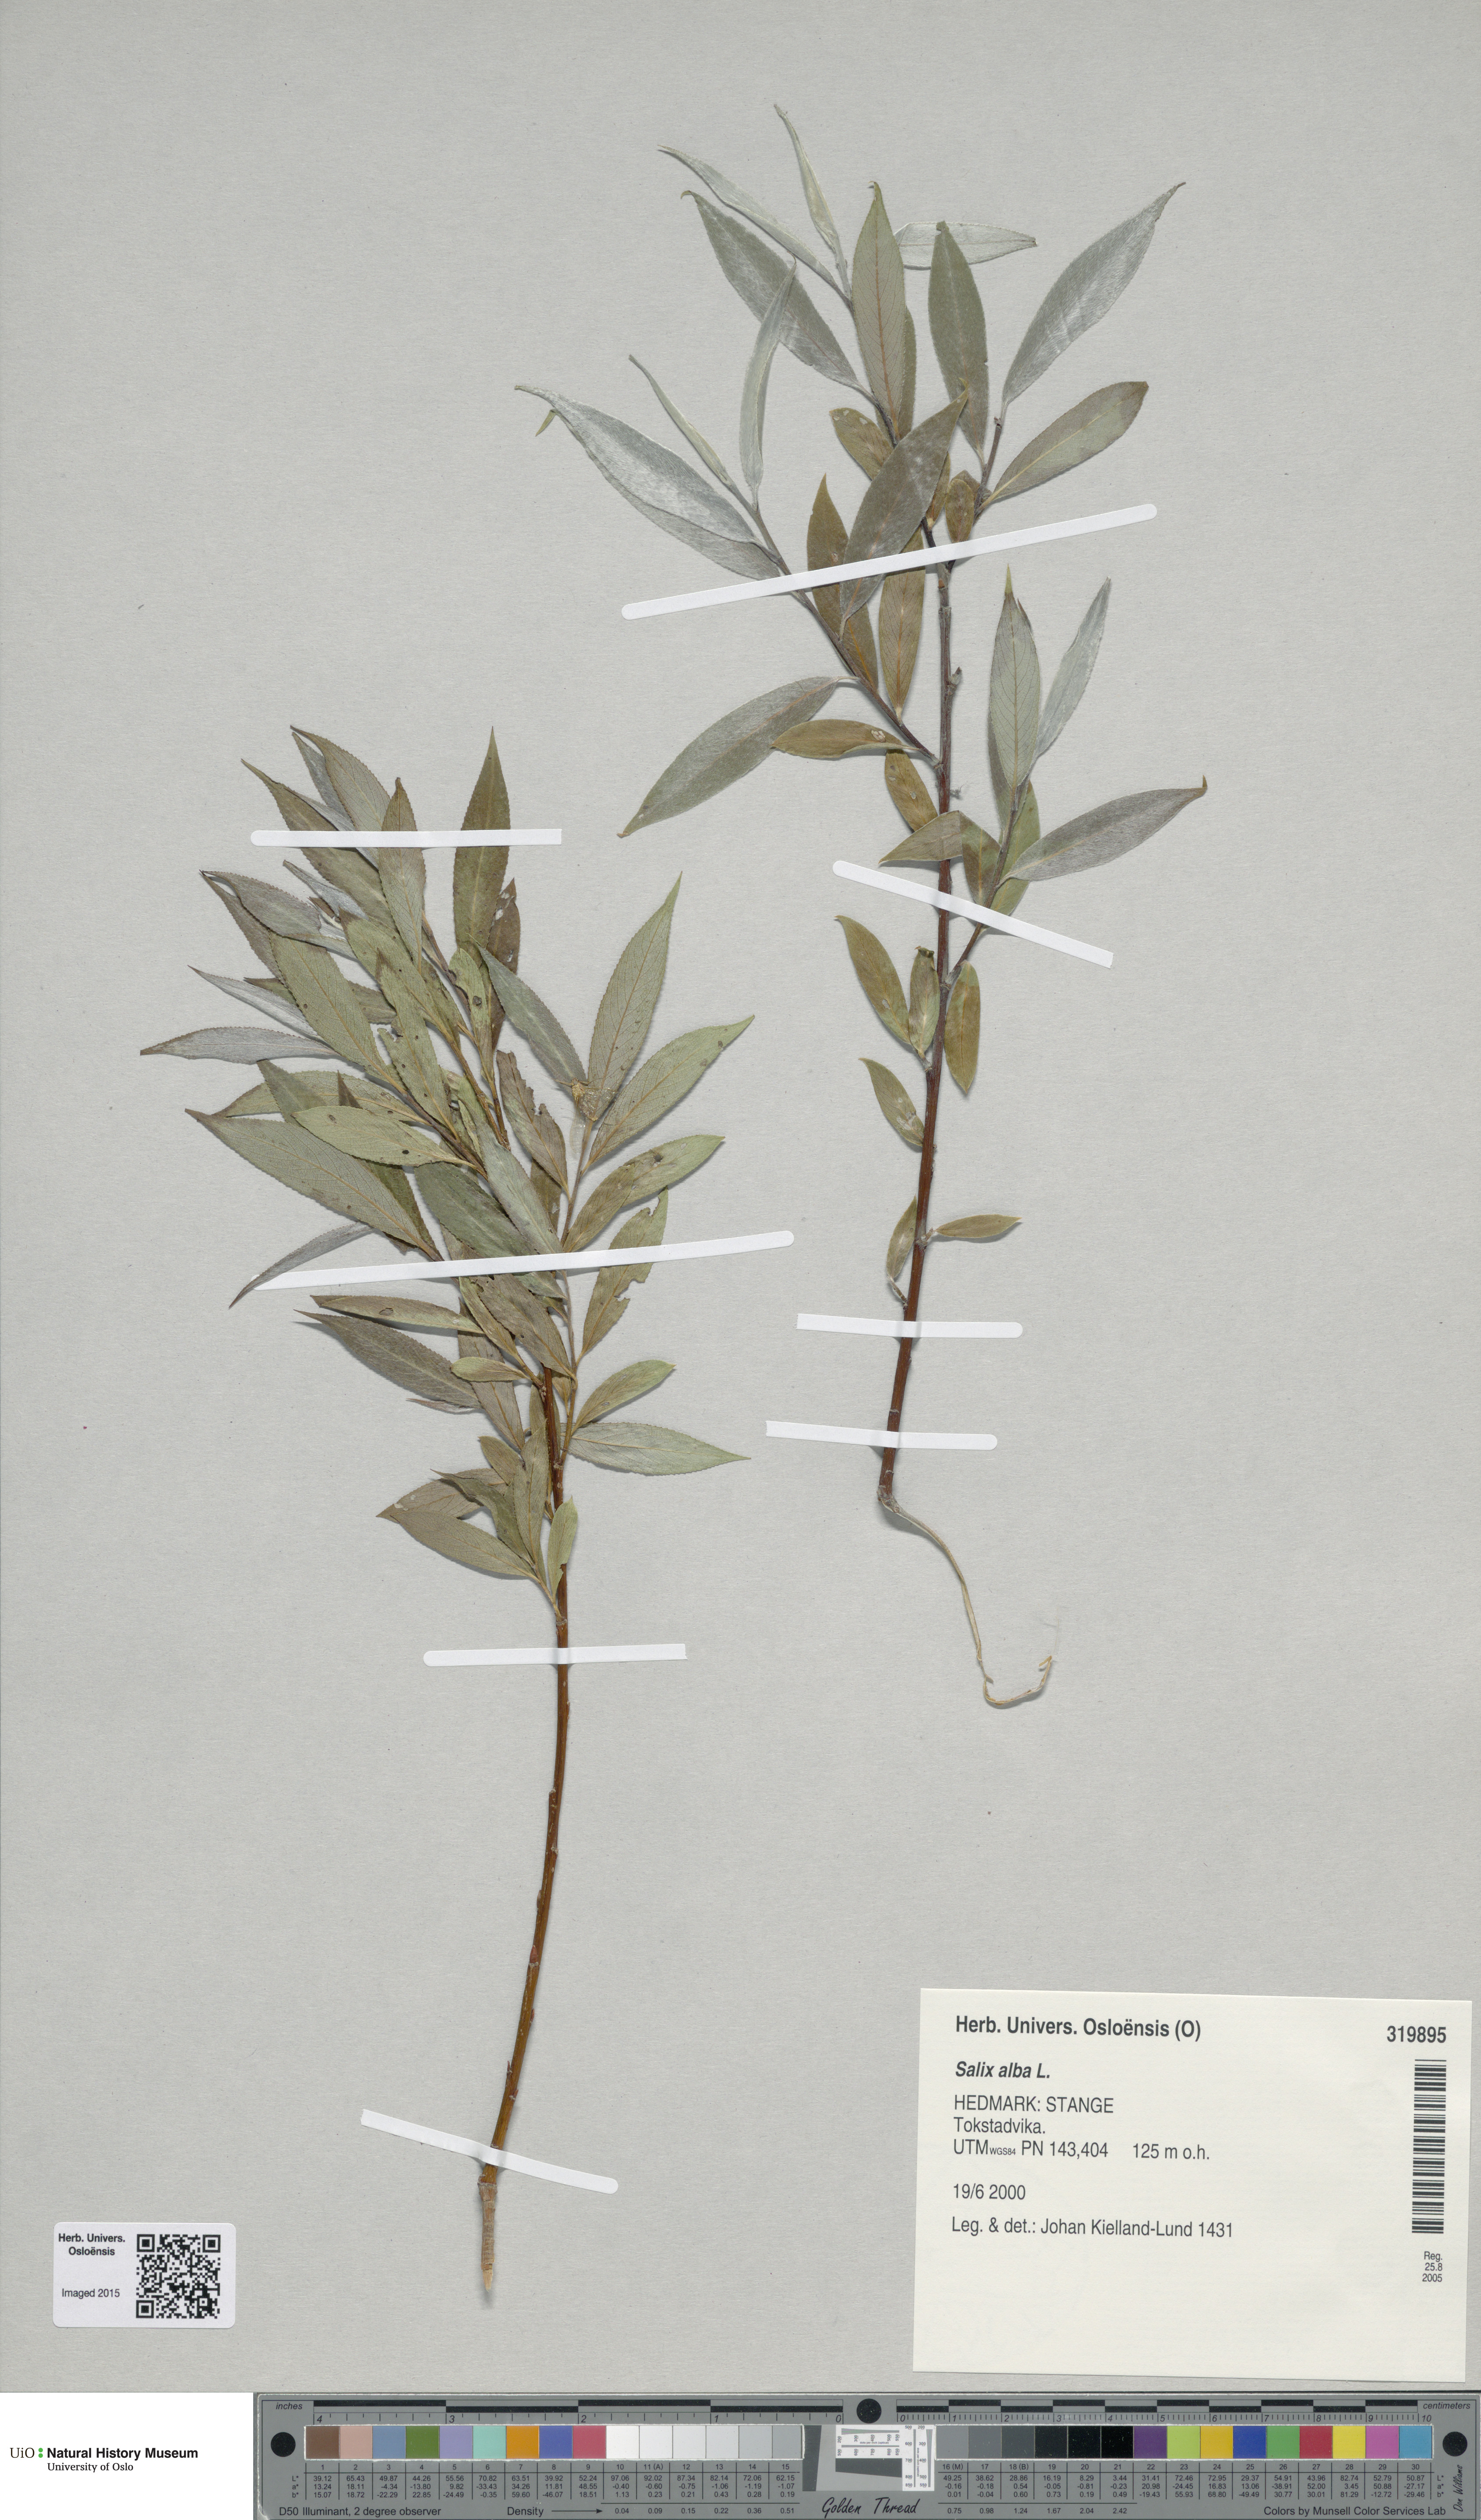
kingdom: Plantae
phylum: Tracheophyta
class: Magnoliopsida
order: Malpighiales
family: Salicaceae
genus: Salix
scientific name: Salix alba
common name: White willow
